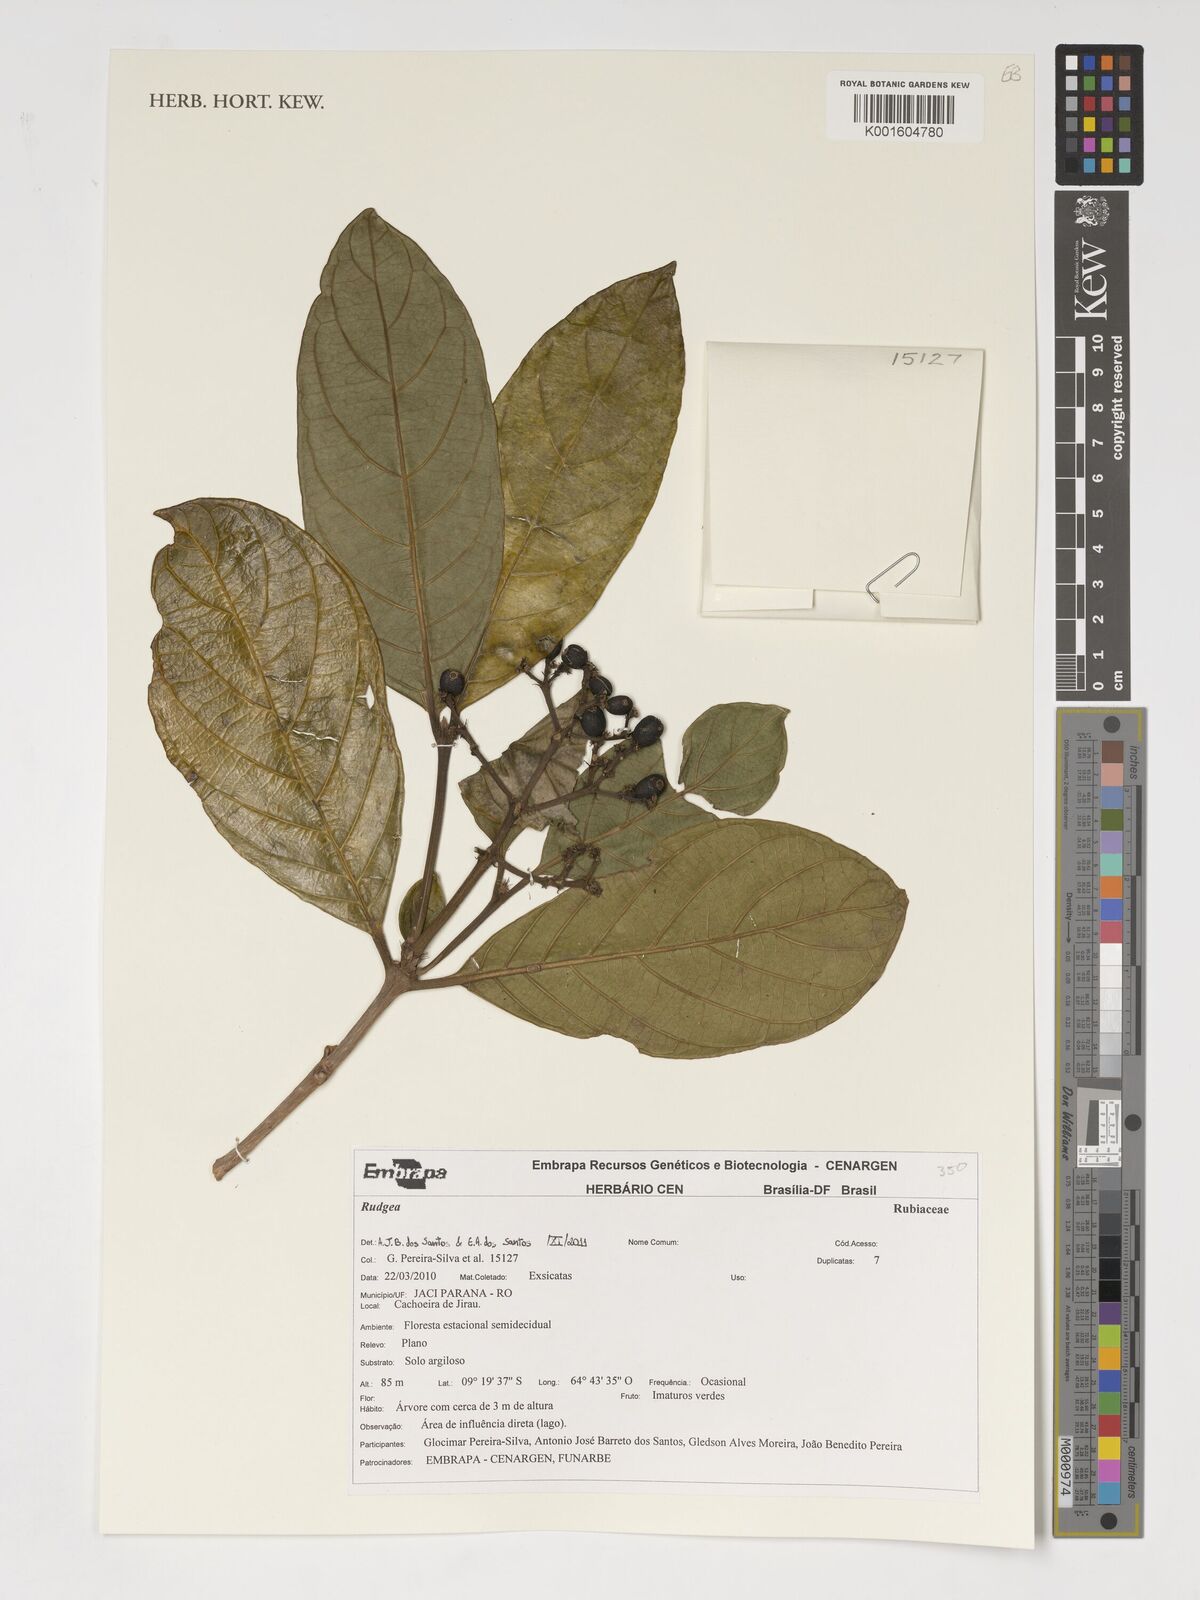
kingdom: Plantae
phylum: Tracheophyta
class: Magnoliopsida
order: Gentianales
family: Rubiaceae
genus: Rudgea
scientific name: Rudgea
